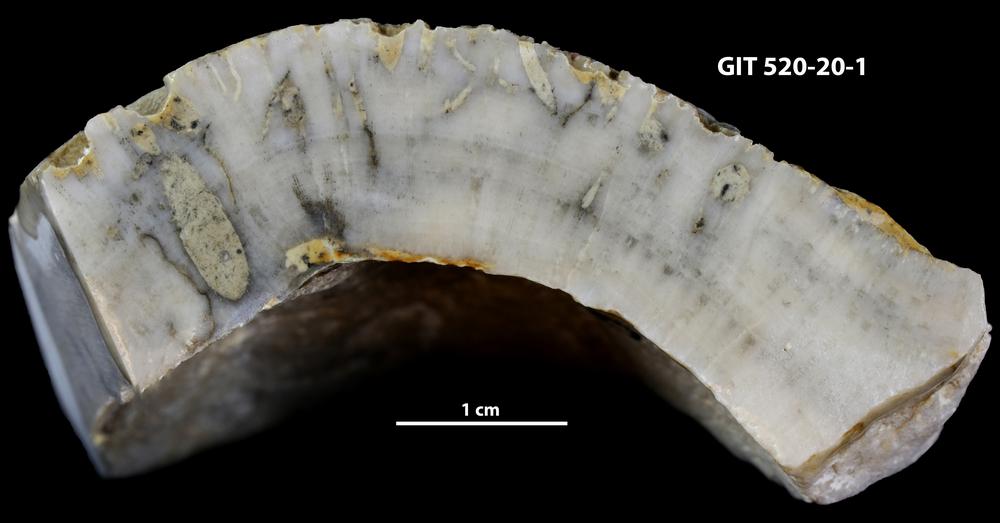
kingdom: Animalia
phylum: Sipuncula
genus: Trypanites
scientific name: Trypanites
